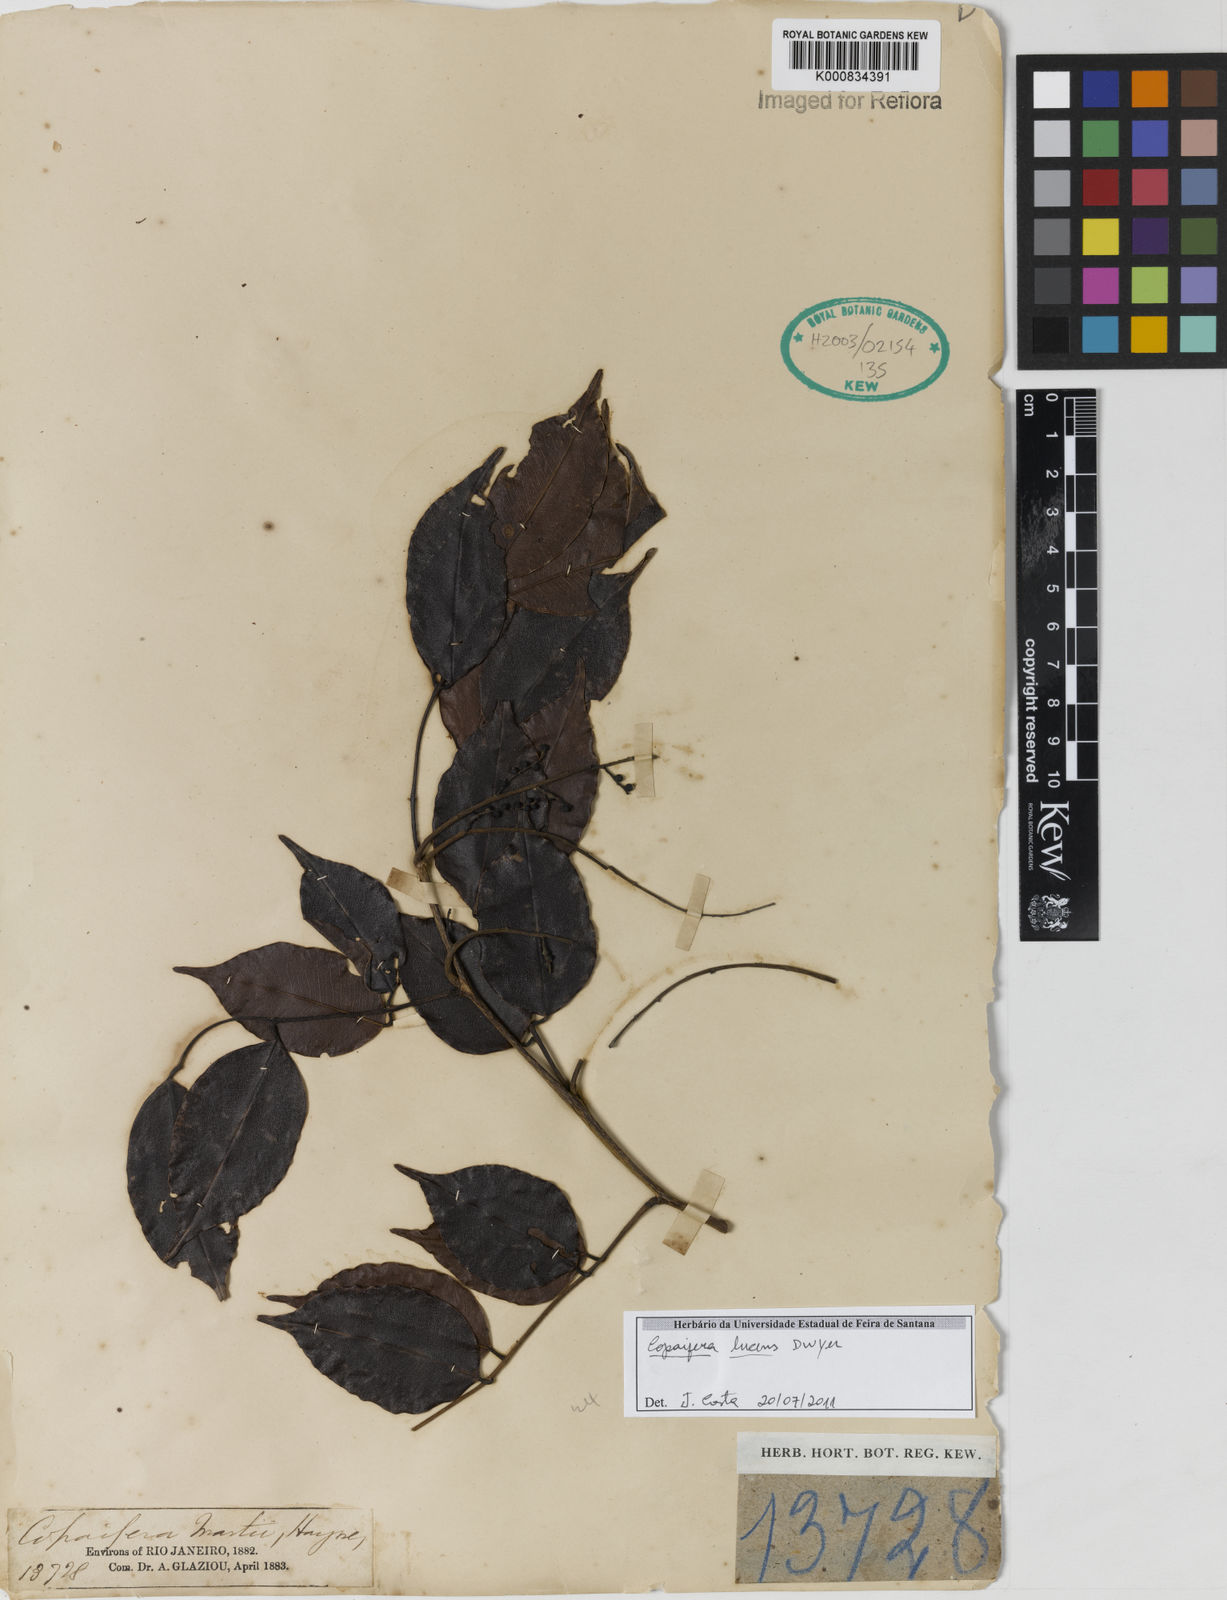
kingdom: Plantae
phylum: Tracheophyta
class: Magnoliopsida
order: Fabales
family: Fabaceae
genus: Copaifera
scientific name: Copaifera lucens
